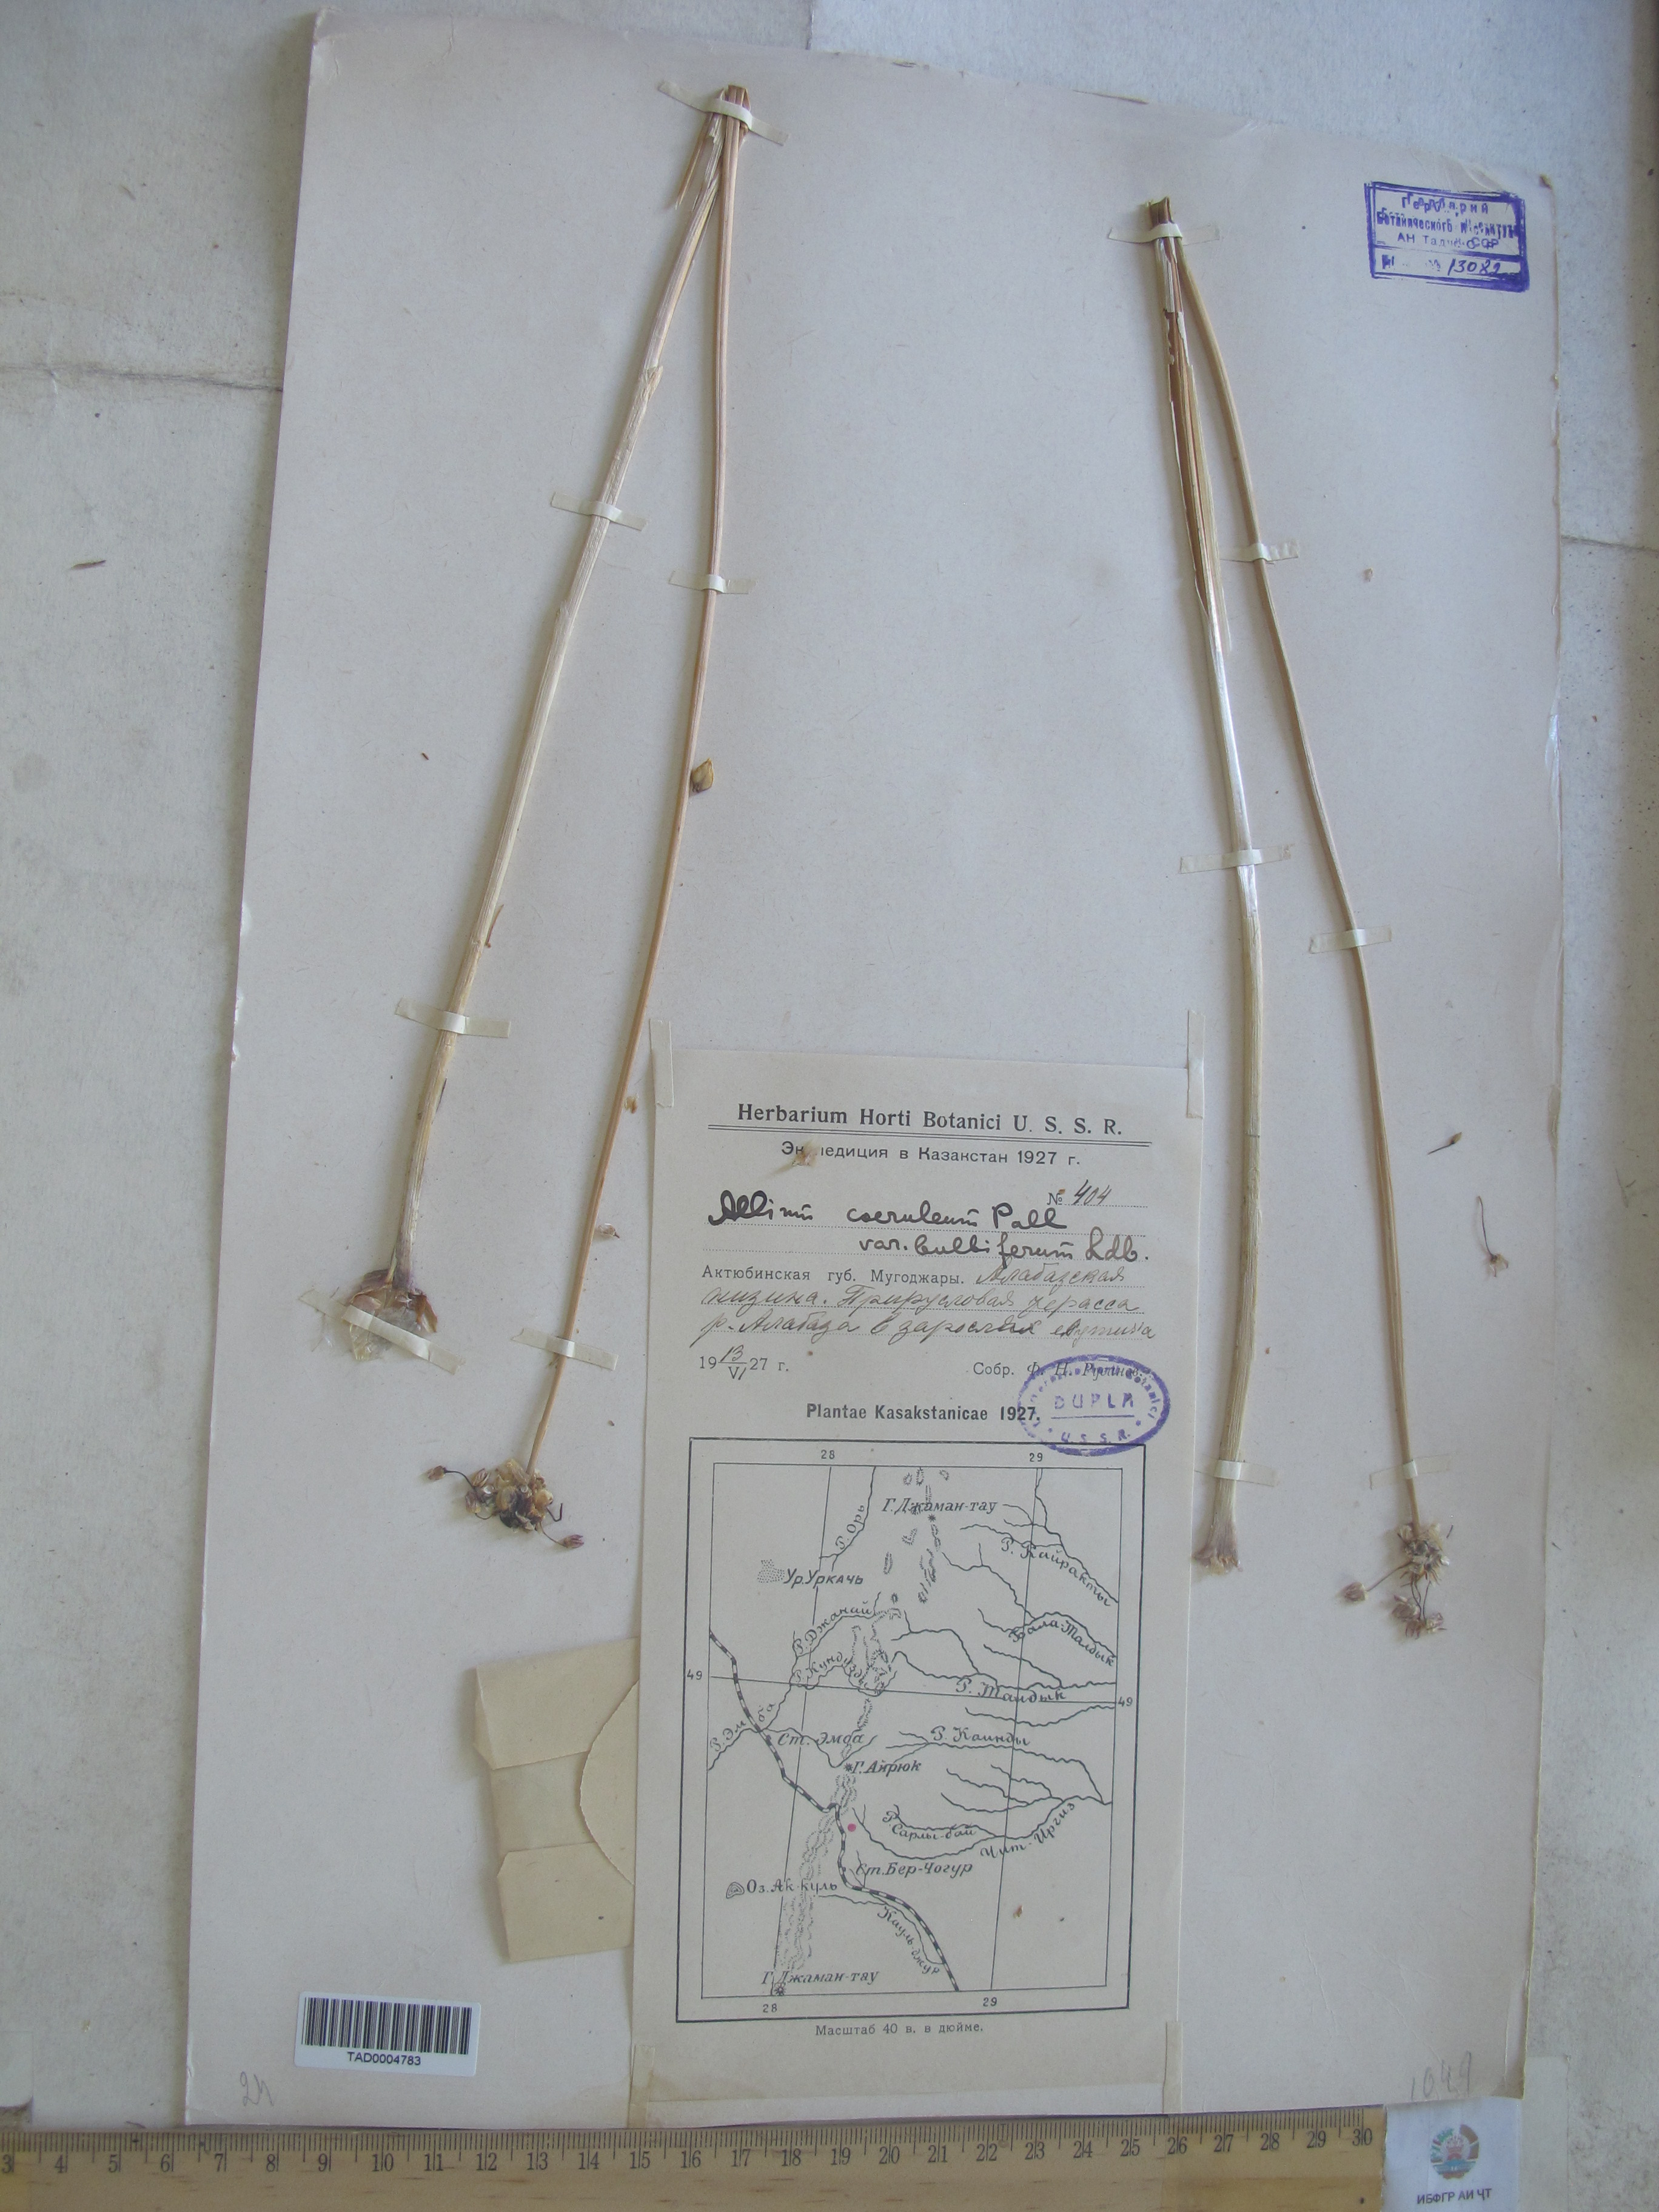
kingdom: Plantae
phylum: Tracheophyta
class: Liliopsida
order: Asparagales
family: Amaryllidaceae
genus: Allium
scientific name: Allium caeruleum
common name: Blue-of-the-heavens
